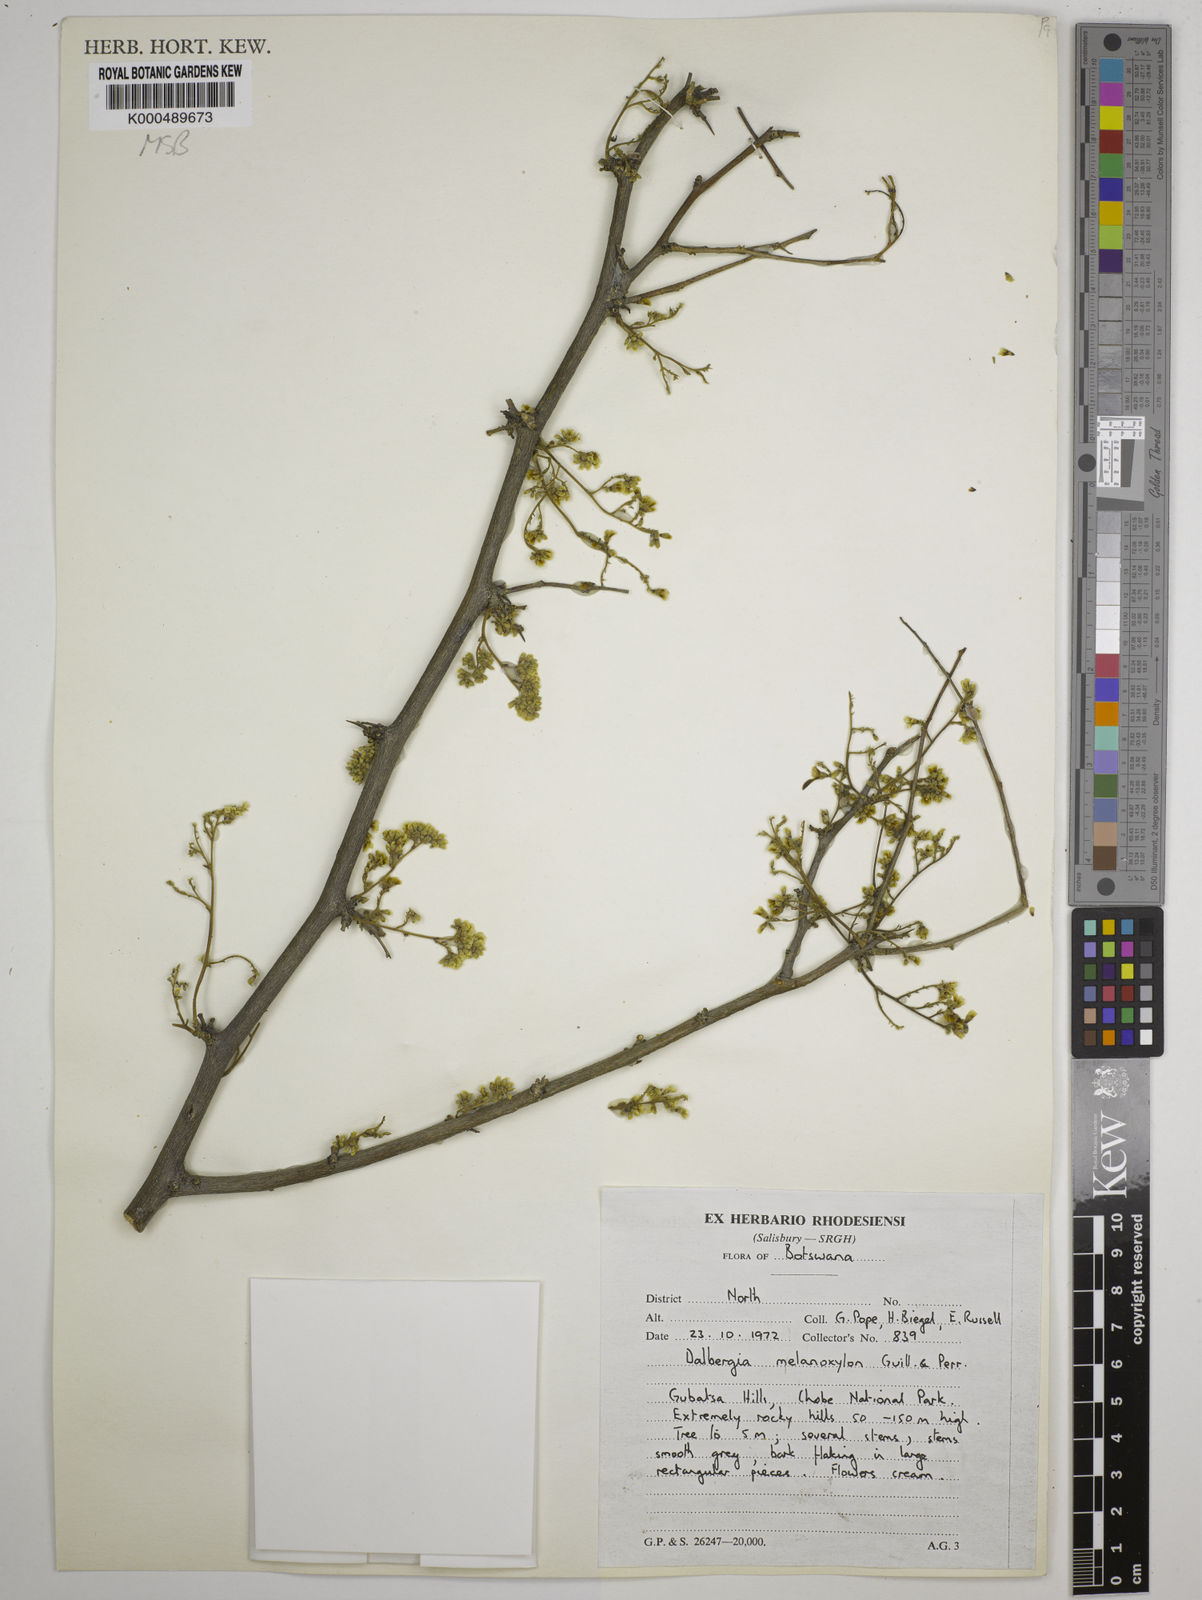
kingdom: Plantae
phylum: Tracheophyta
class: Magnoliopsida
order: Fabales
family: Fabaceae
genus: Dalbergia
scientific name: Dalbergia melanoxylon
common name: African blackwood
